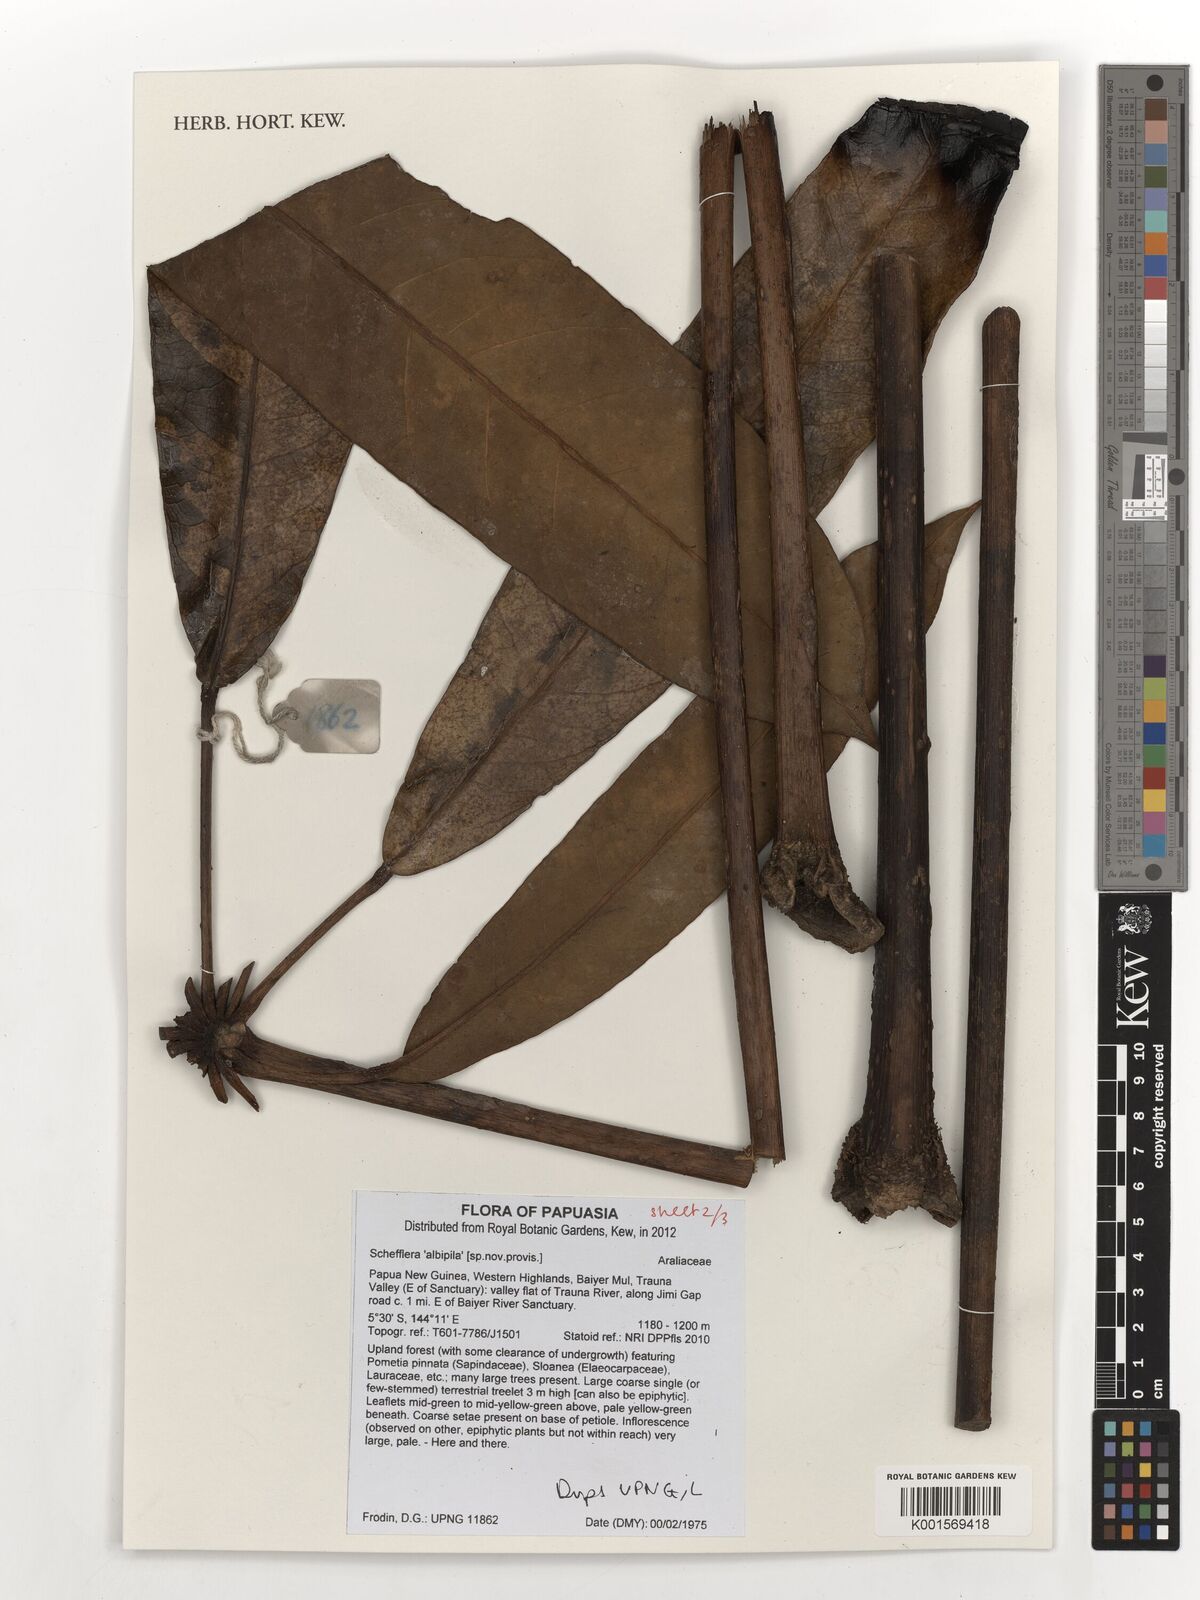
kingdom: Plantae
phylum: Tracheophyta
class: Magnoliopsida
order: Apiales
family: Araliaceae
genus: Schefflera
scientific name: Schefflera
